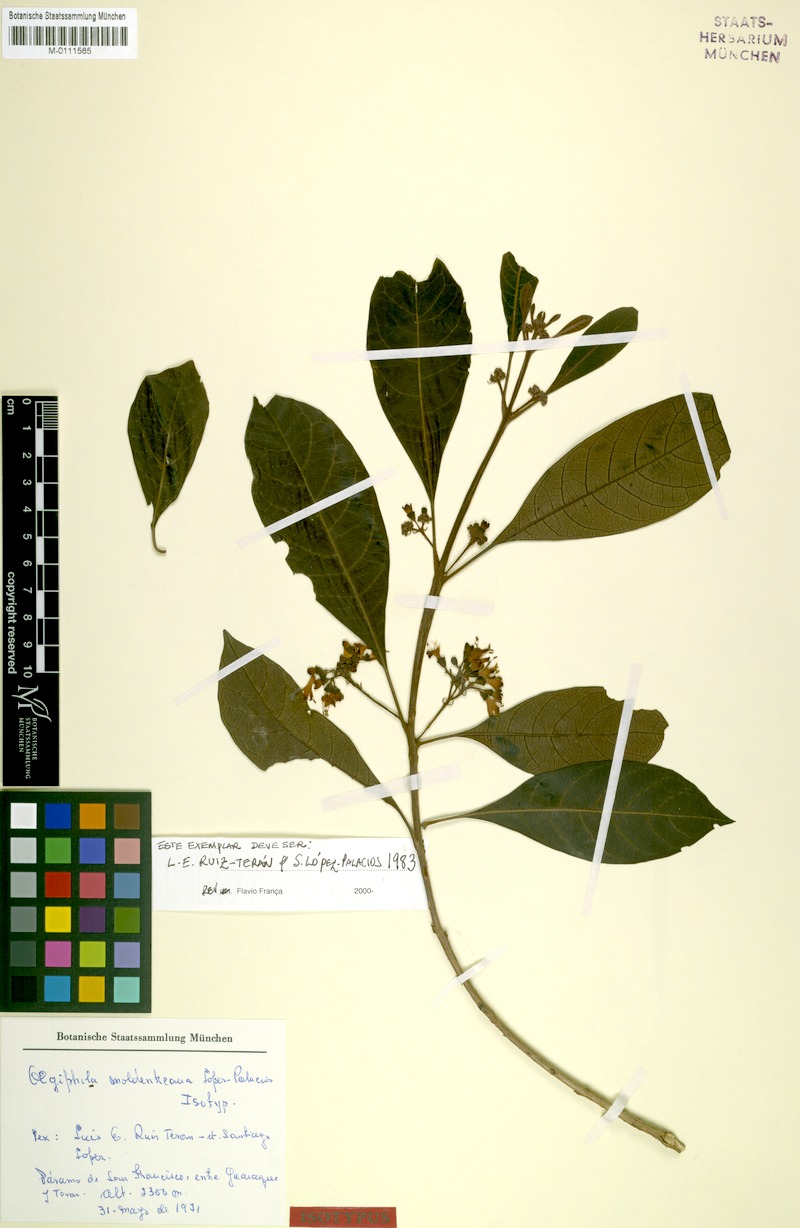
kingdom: Plantae
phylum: Tracheophyta
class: Magnoliopsida
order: Lamiales
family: Lamiaceae
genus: Aegiphila
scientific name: Aegiphila moldenkeana
